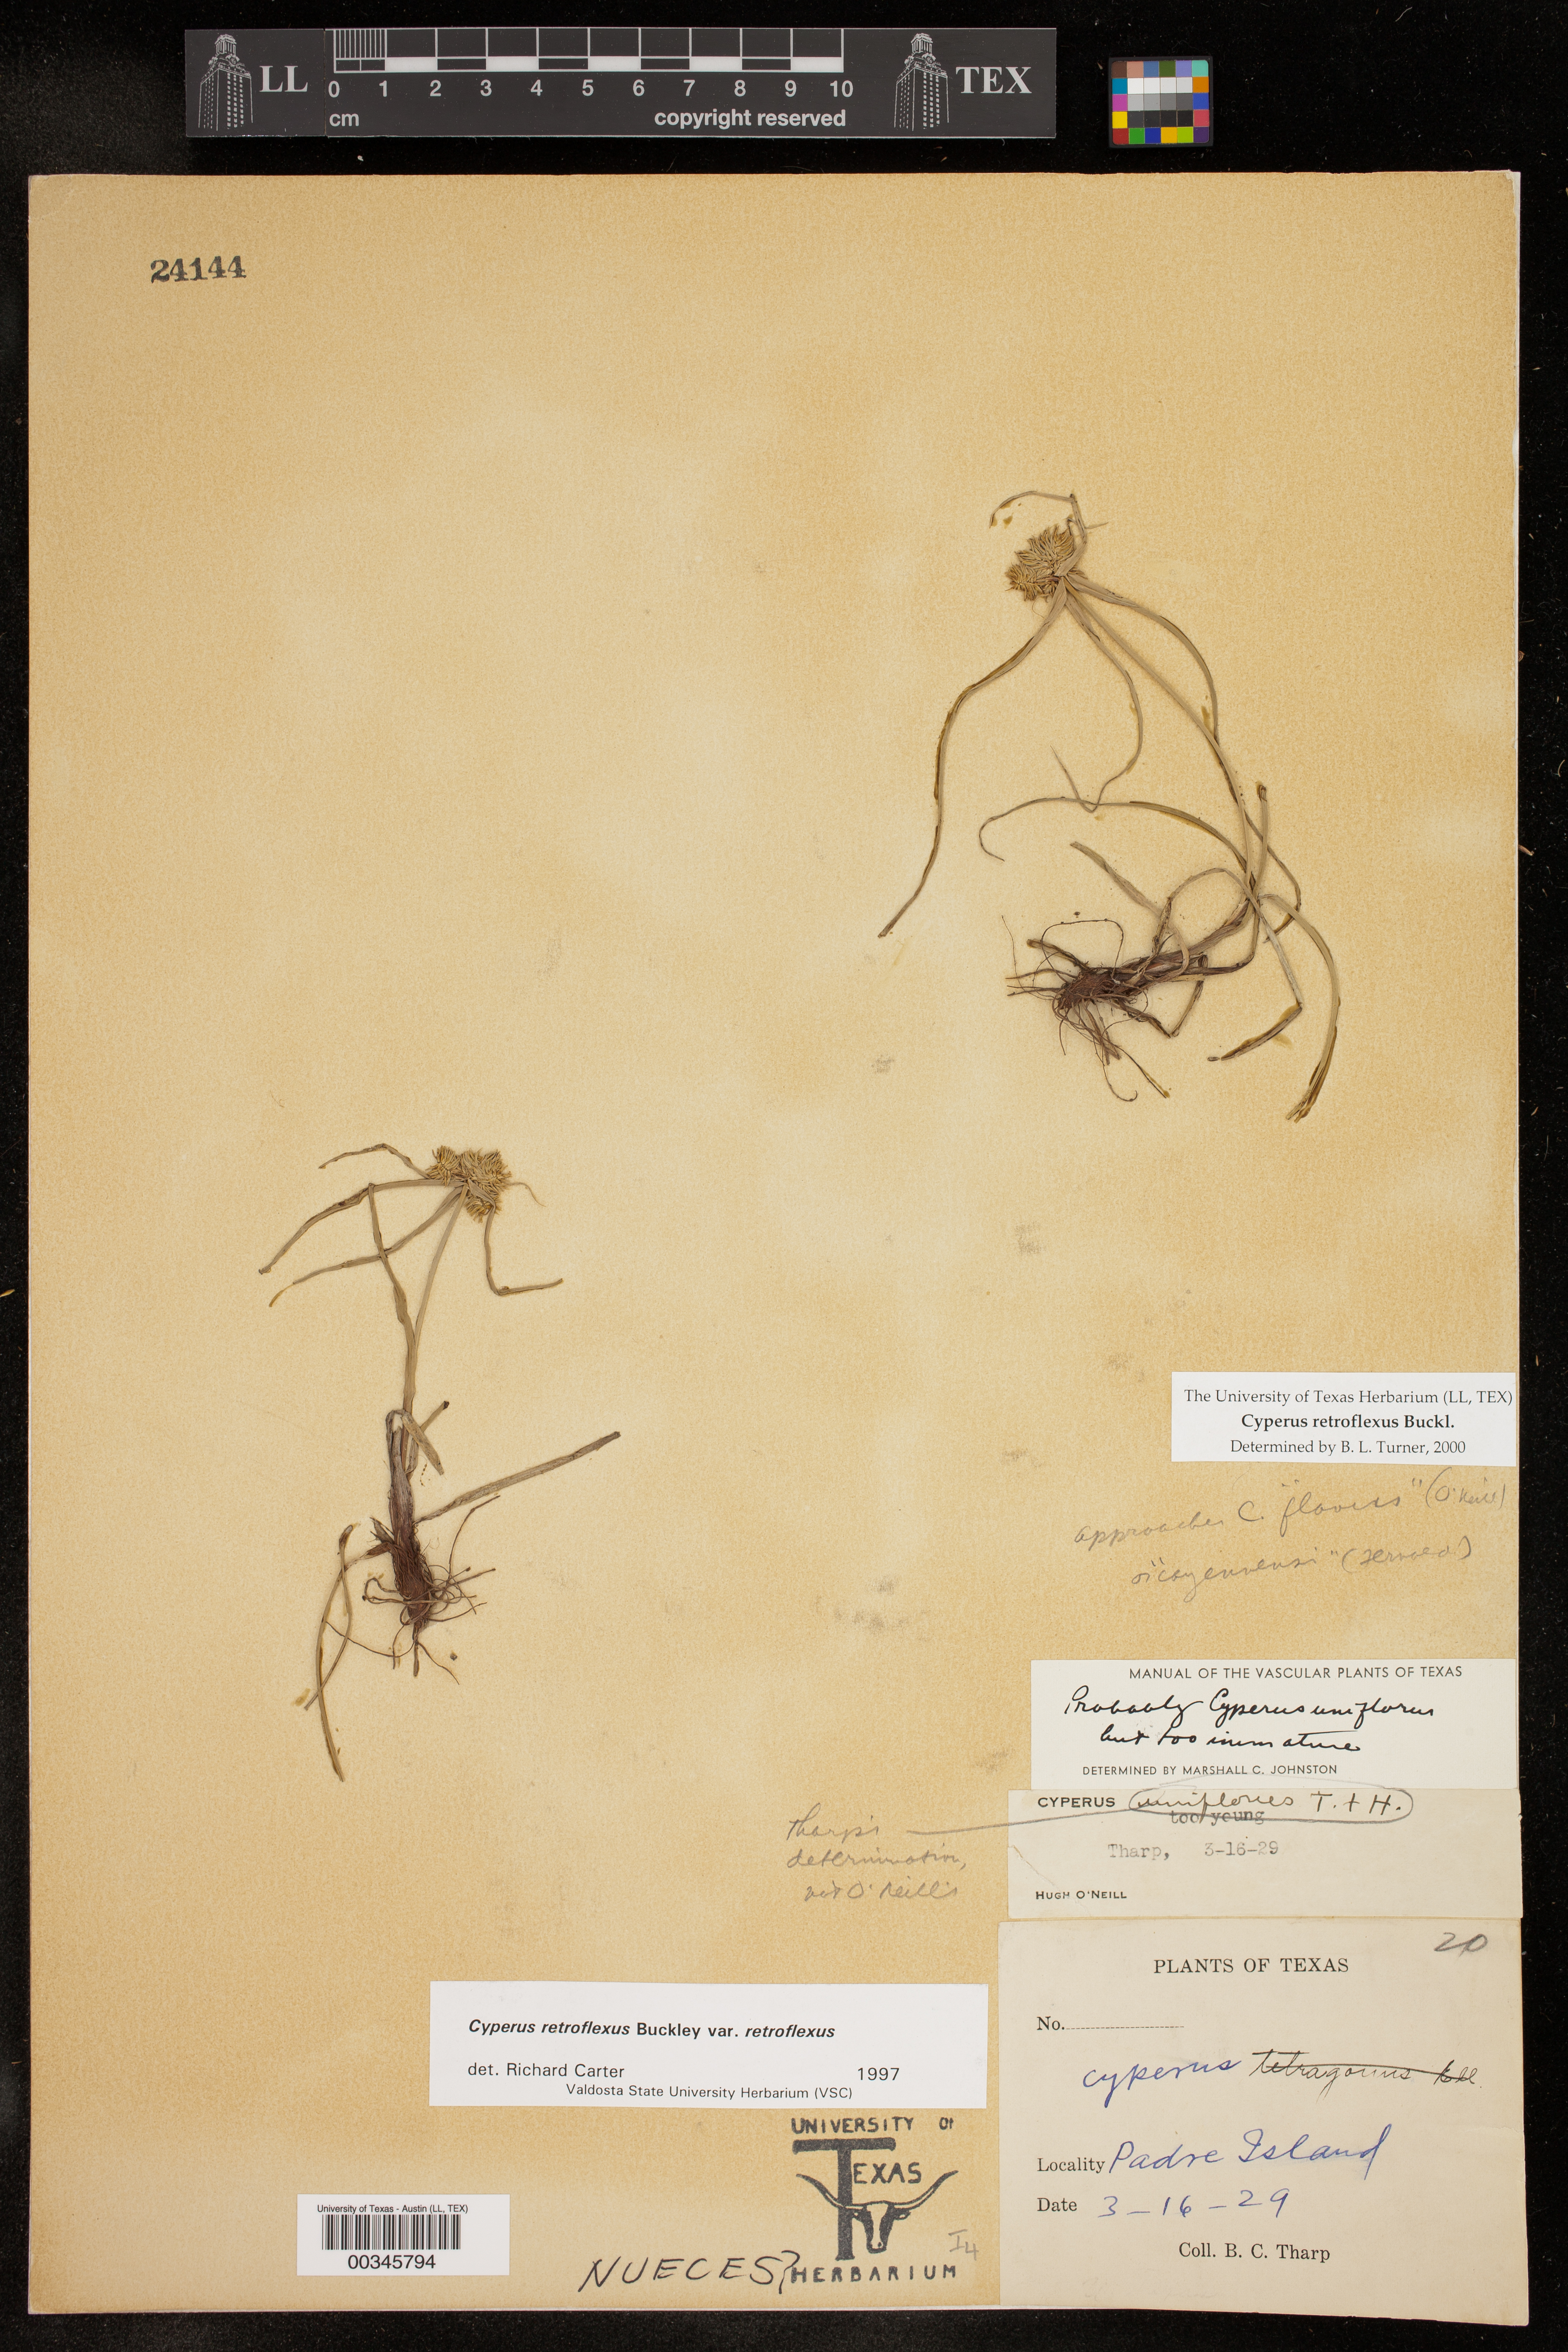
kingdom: Plantae
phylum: Tracheophyta
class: Liliopsida
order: Poales
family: Cyperaceae
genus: Cyperus
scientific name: Cyperus retroflexus
